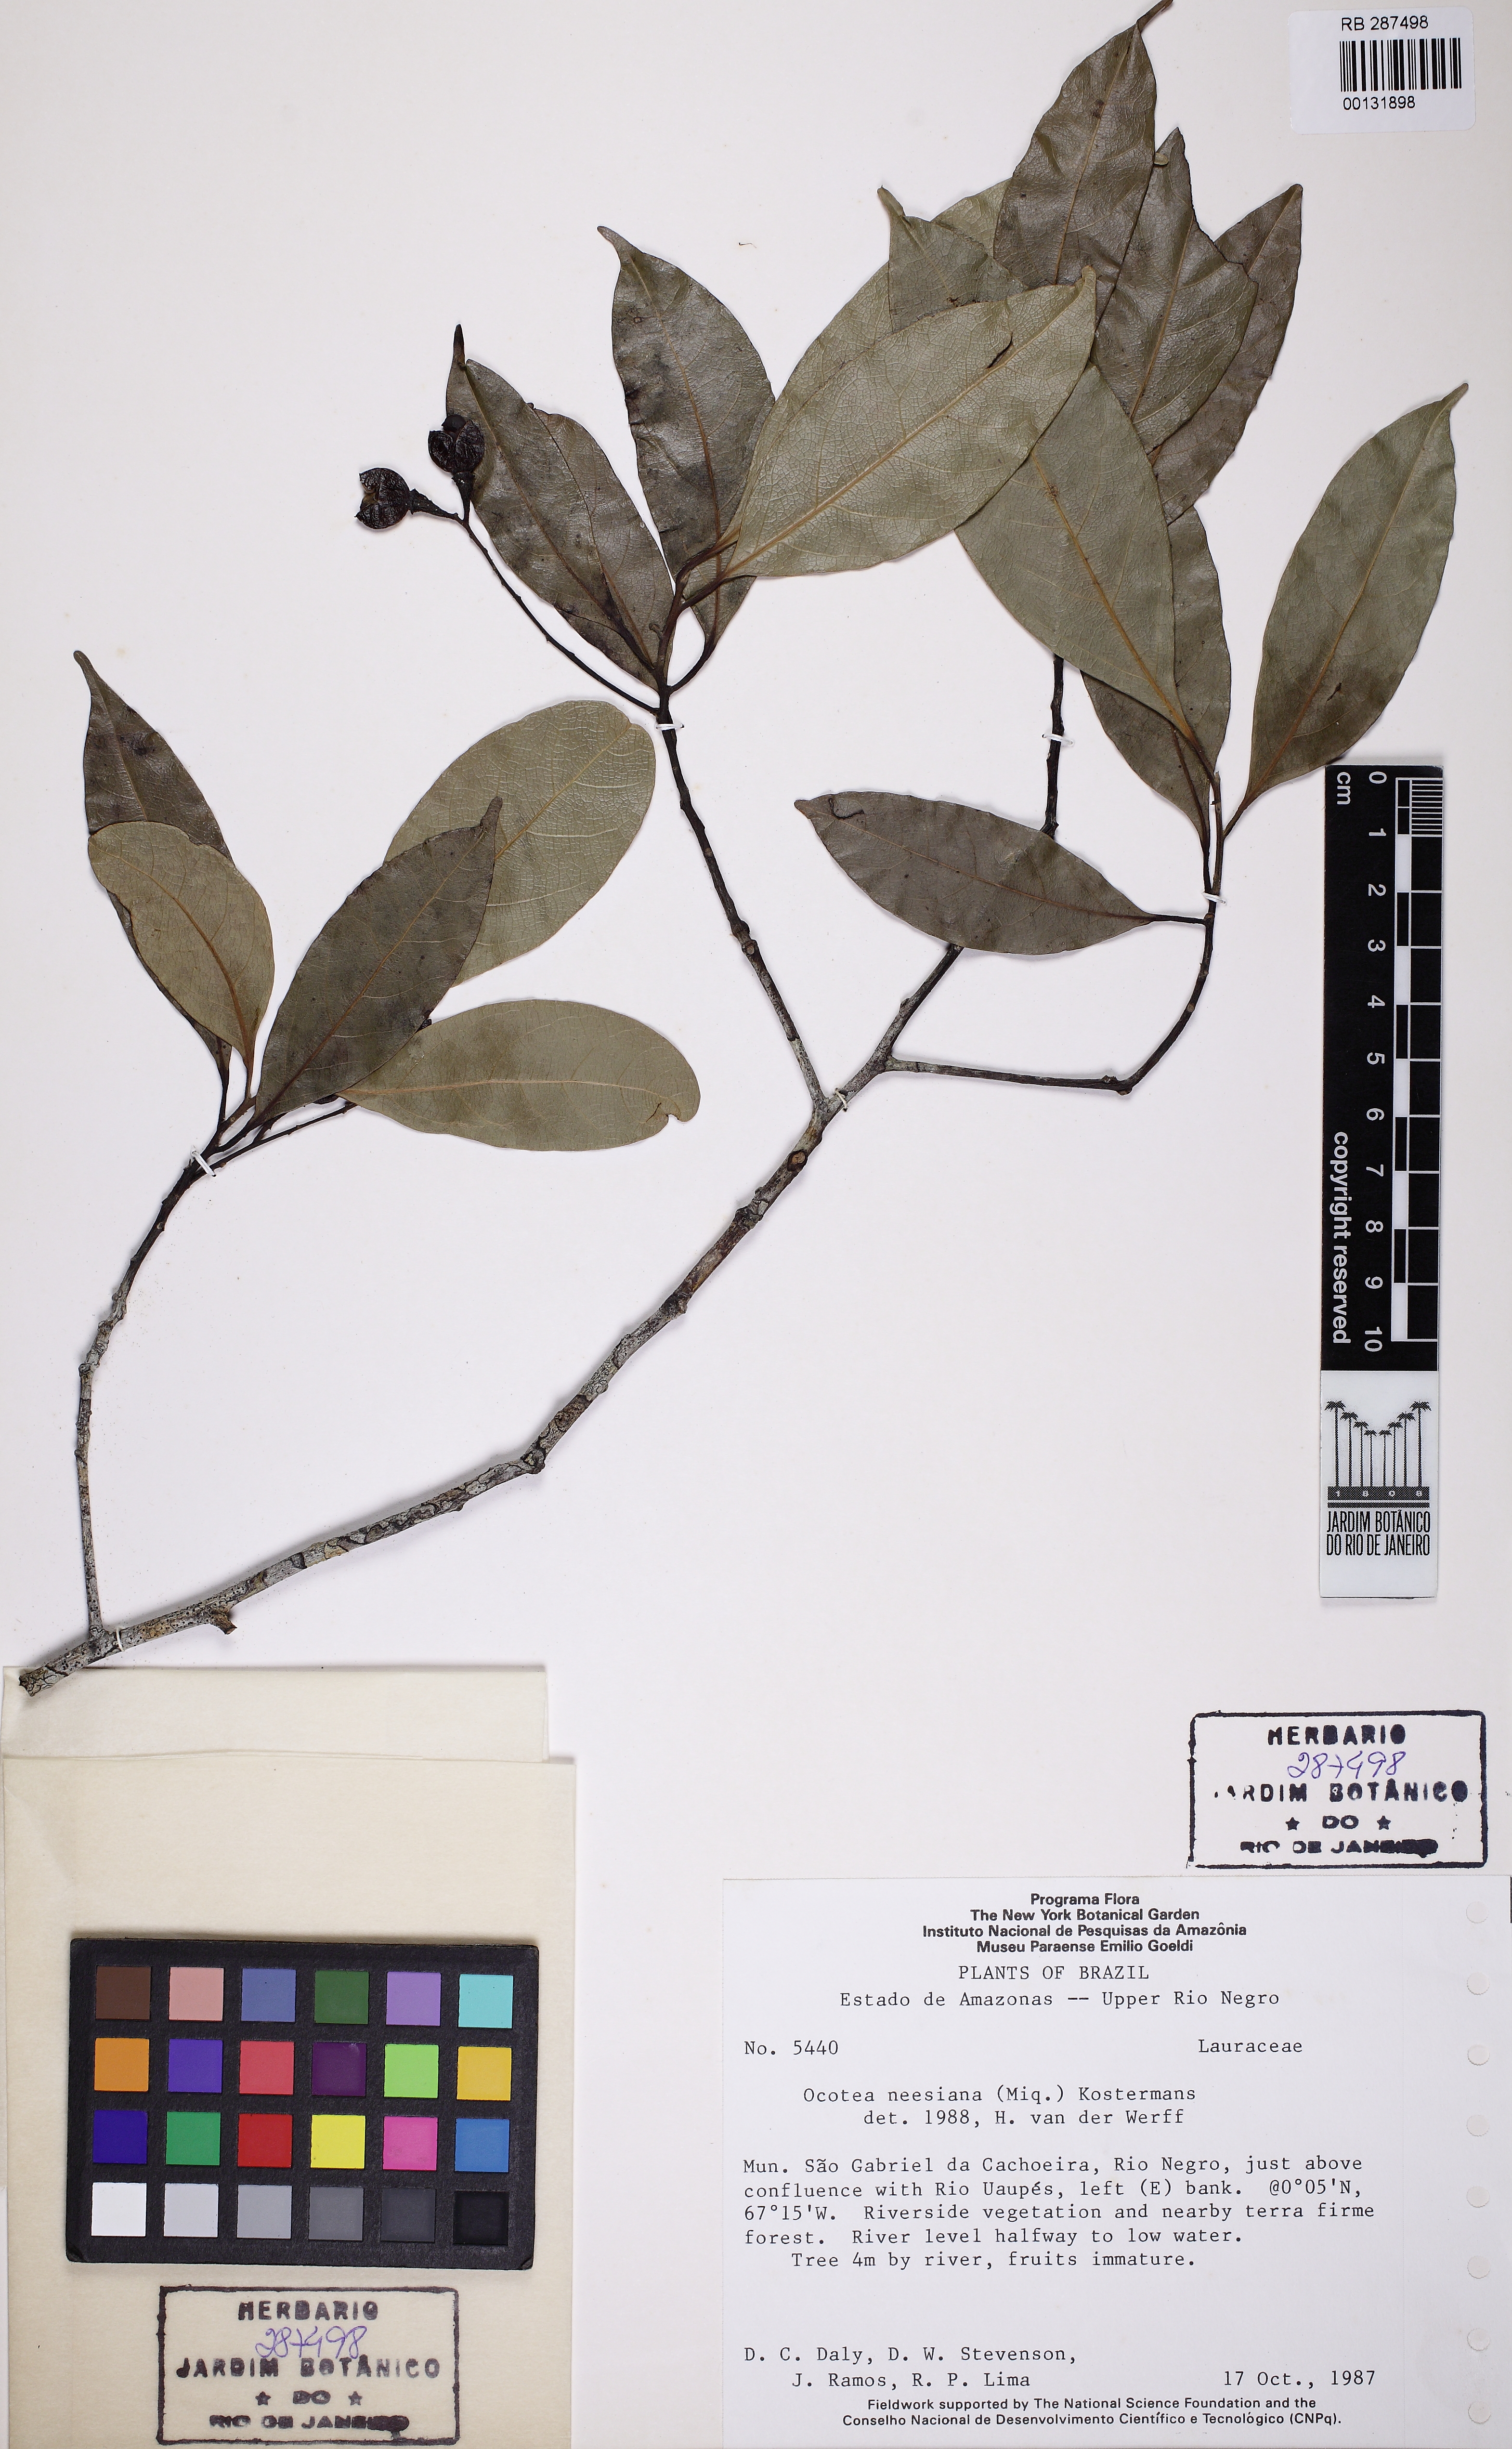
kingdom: Plantae
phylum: Tracheophyta
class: Magnoliopsida
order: Laurales
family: Lauraceae
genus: Ocotea
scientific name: Ocotea neesiana
